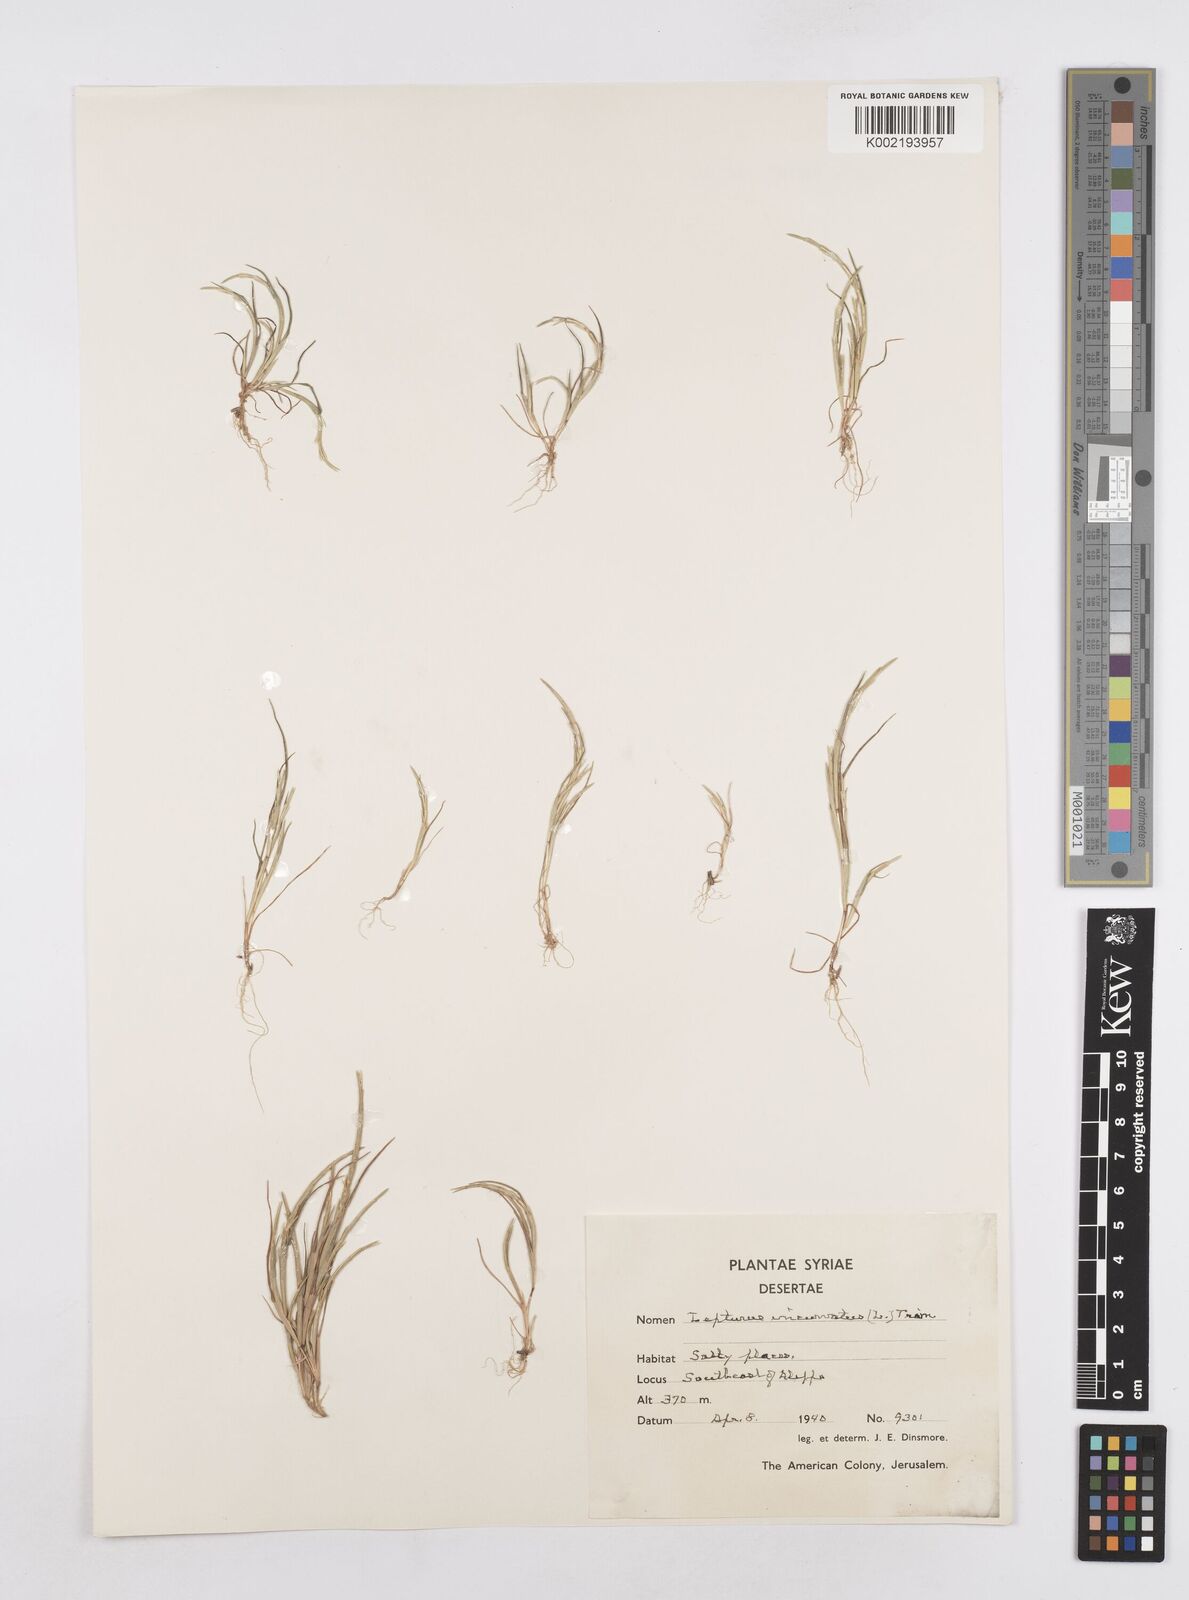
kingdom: Plantae
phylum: Tracheophyta
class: Liliopsida
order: Poales
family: Poaceae
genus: Parapholis
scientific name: Parapholis incurva
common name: Curved sicklegrass
